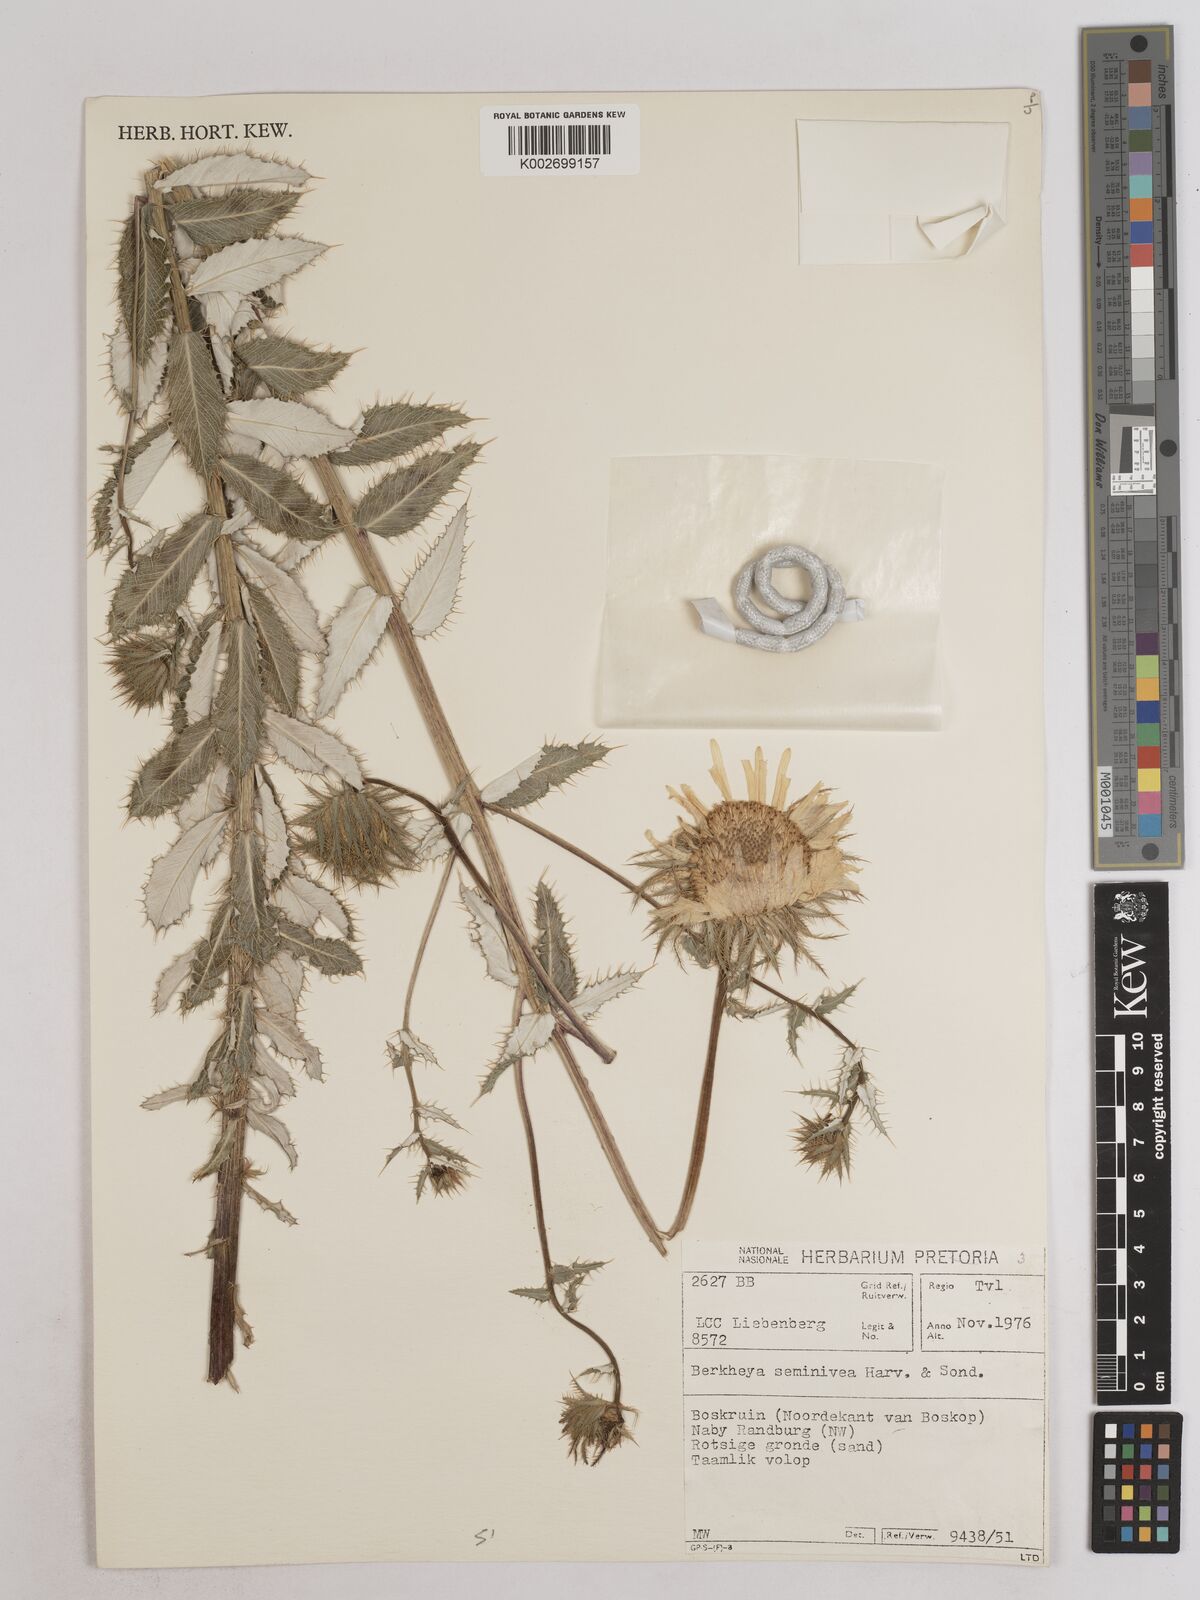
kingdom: Plantae
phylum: Tracheophyta
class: Magnoliopsida
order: Asterales
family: Asteraceae
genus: Berkheya
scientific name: Berkheya seminivea
